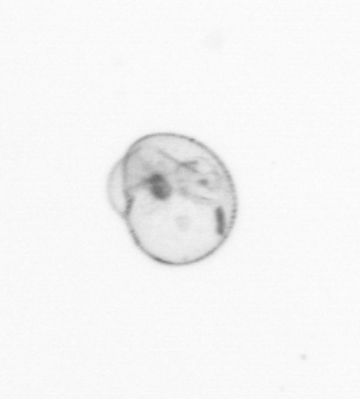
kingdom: Chromista
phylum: Myzozoa
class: Dinophyceae
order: Noctilucales
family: Noctilucaceae
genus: Noctiluca
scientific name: Noctiluca scintillans
